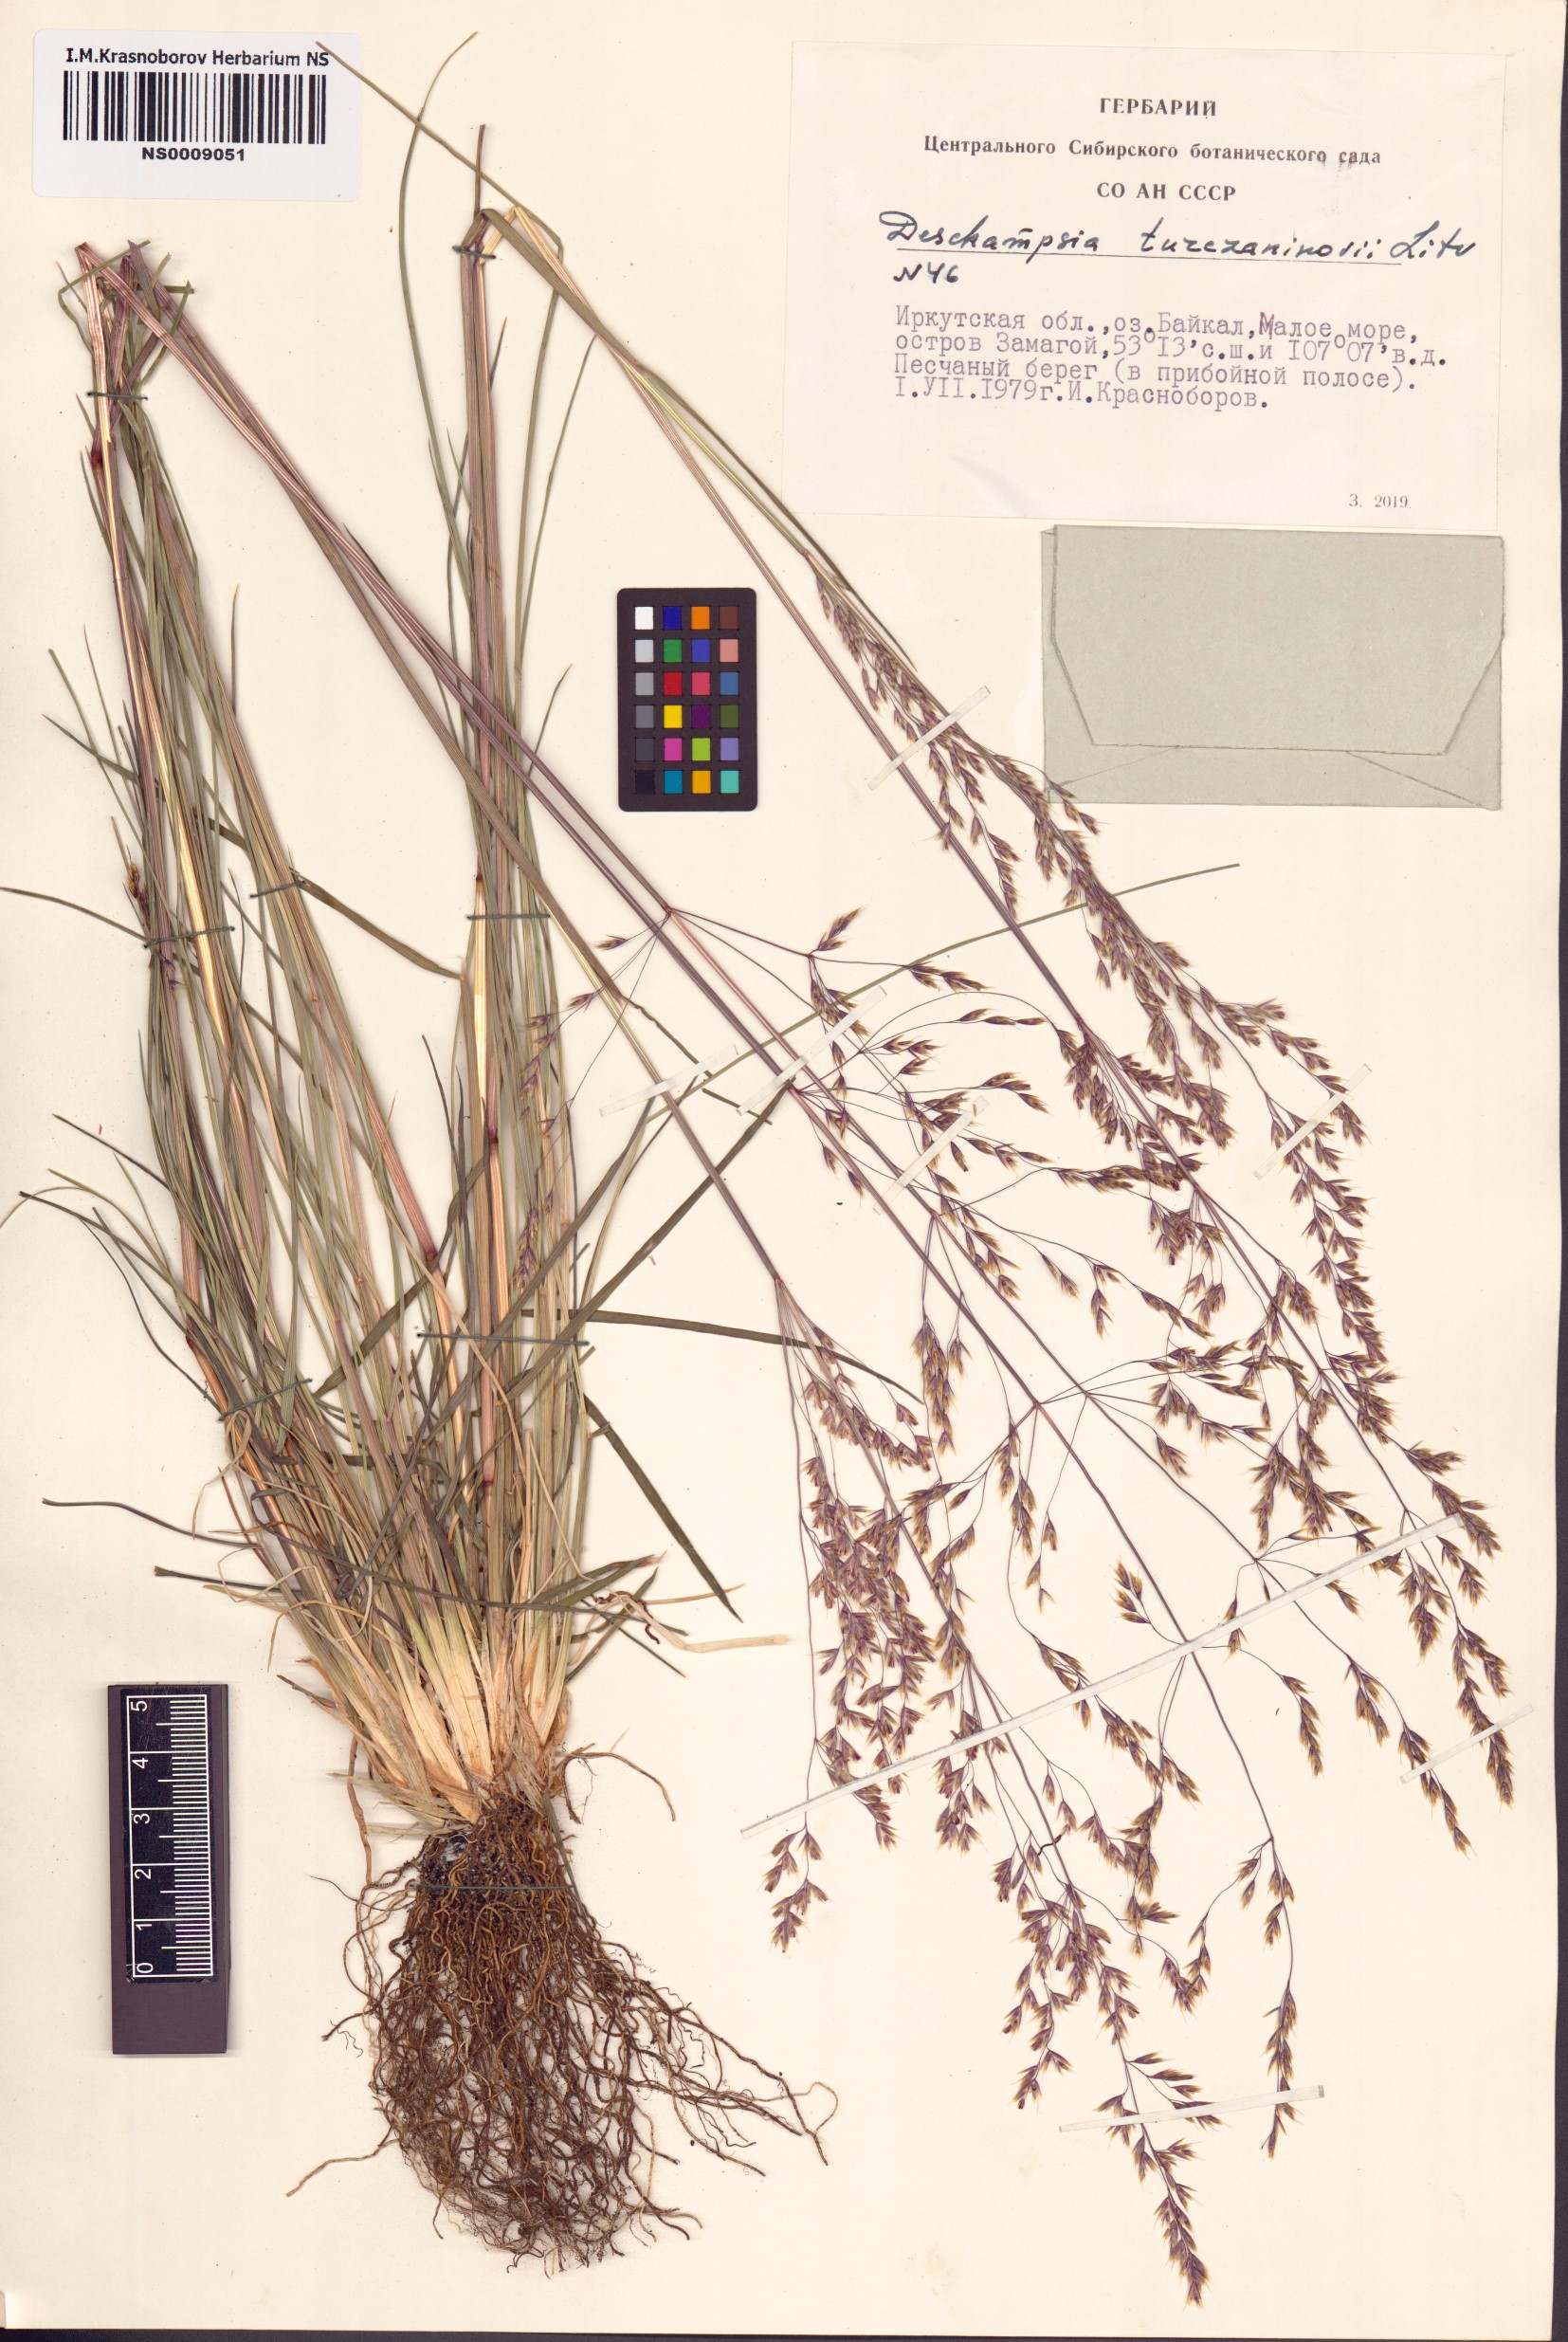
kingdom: Plantae
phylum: Tracheophyta
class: Liliopsida
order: Poales
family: Poaceae
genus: Deschampsia
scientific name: Deschampsia cespitosa
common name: Tufted hair-grass
